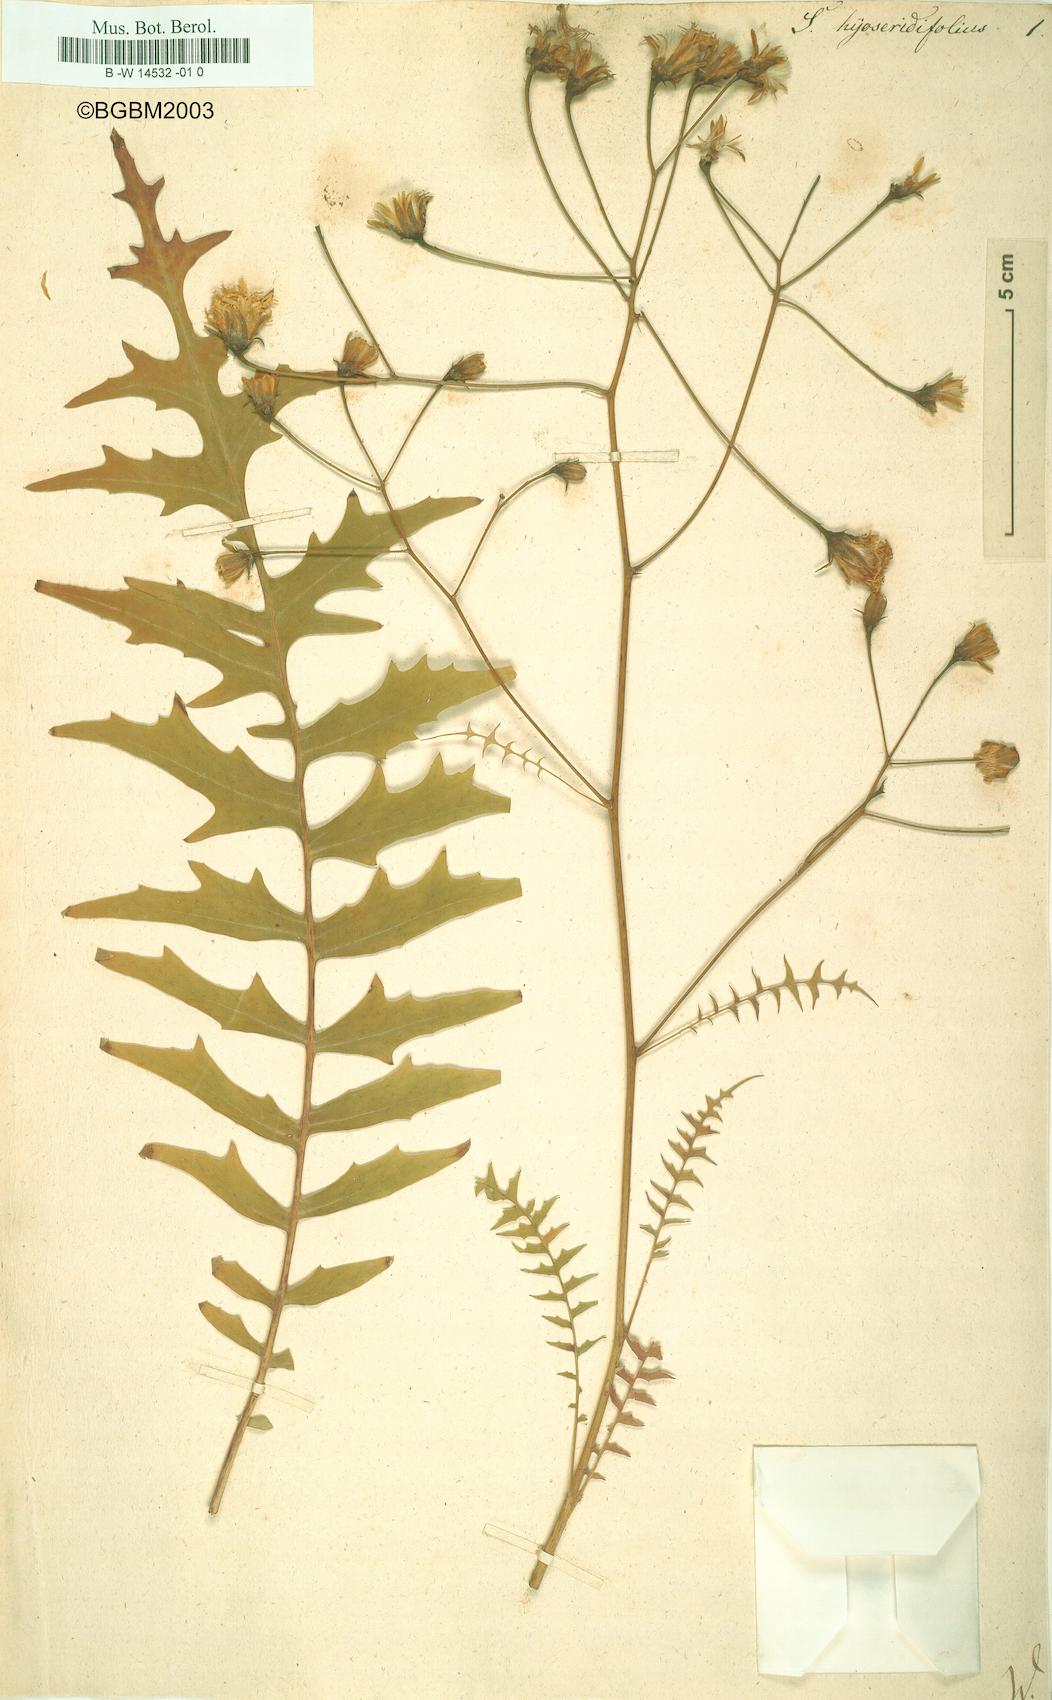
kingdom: Plantae
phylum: Tracheophyta
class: Magnoliopsida
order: Asterales
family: Asteraceae
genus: Sonchus
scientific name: Sonchus ustulatus
